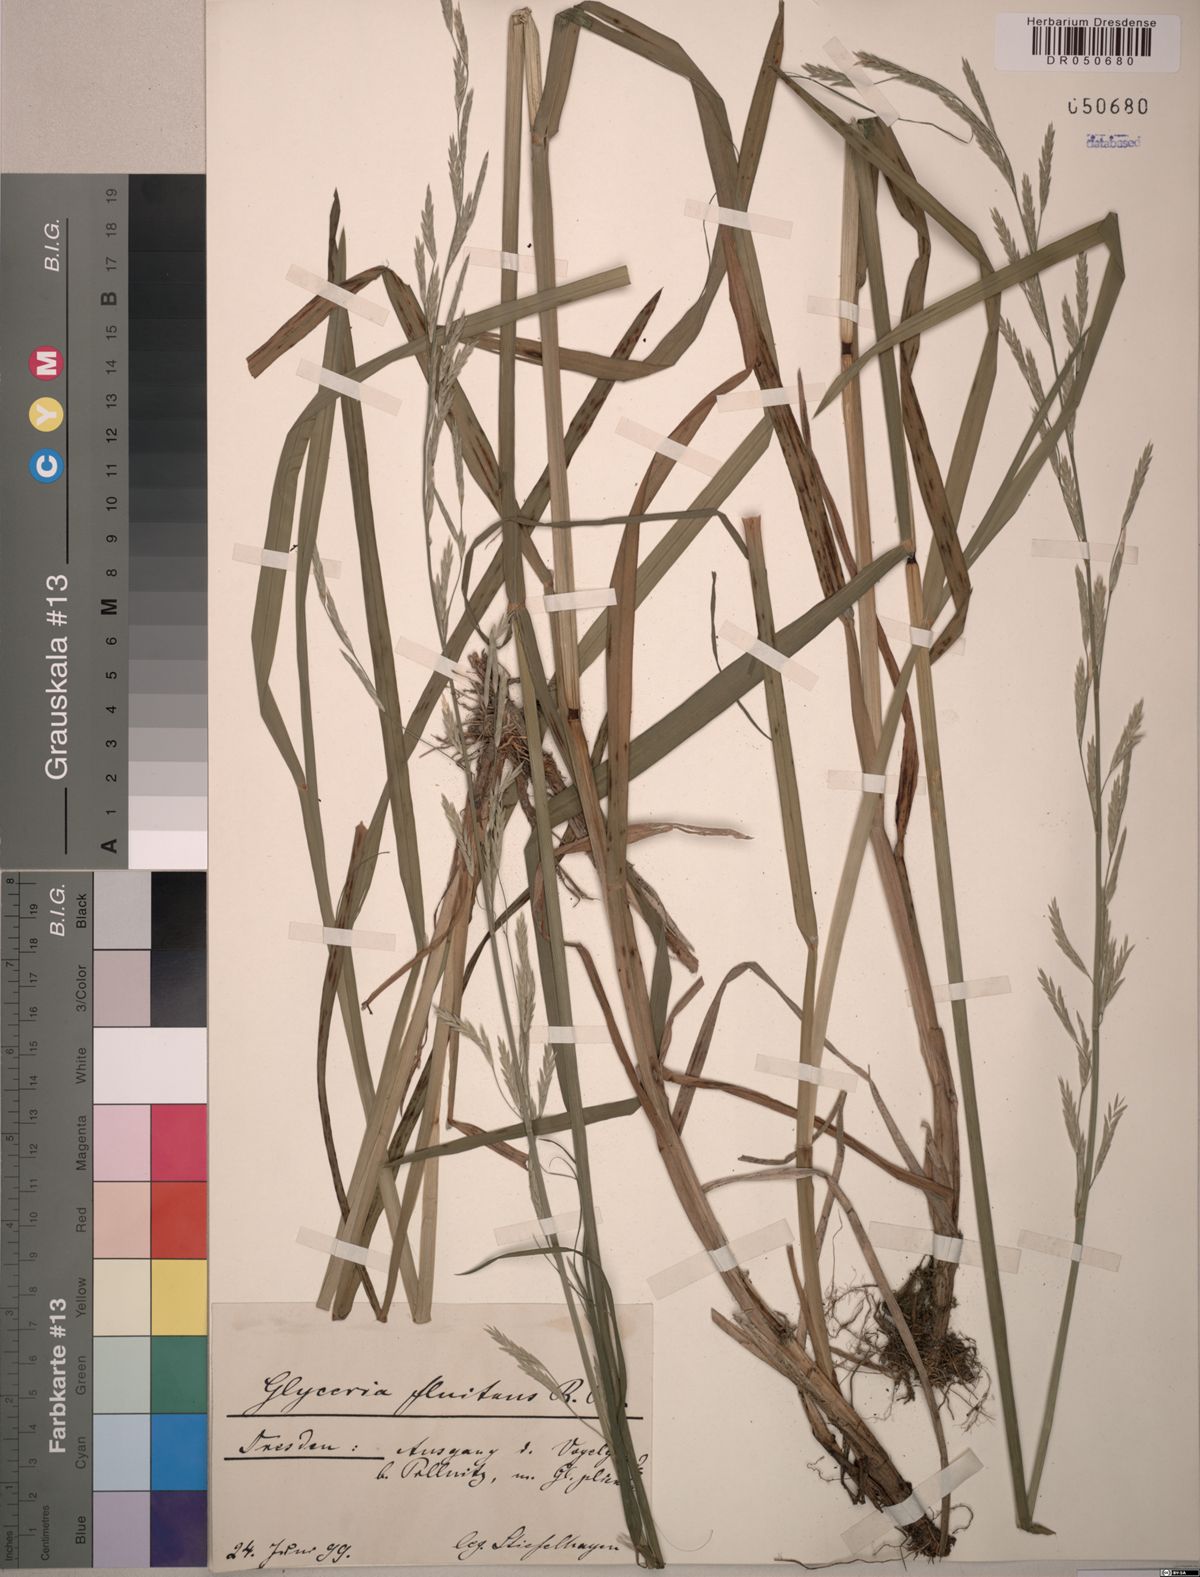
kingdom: Plantae
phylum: Tracheophyta
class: Liliopsida
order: Poales
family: Poaceae
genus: Glyceria
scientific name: Glyceria fluitans
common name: Floating sweet-grass
